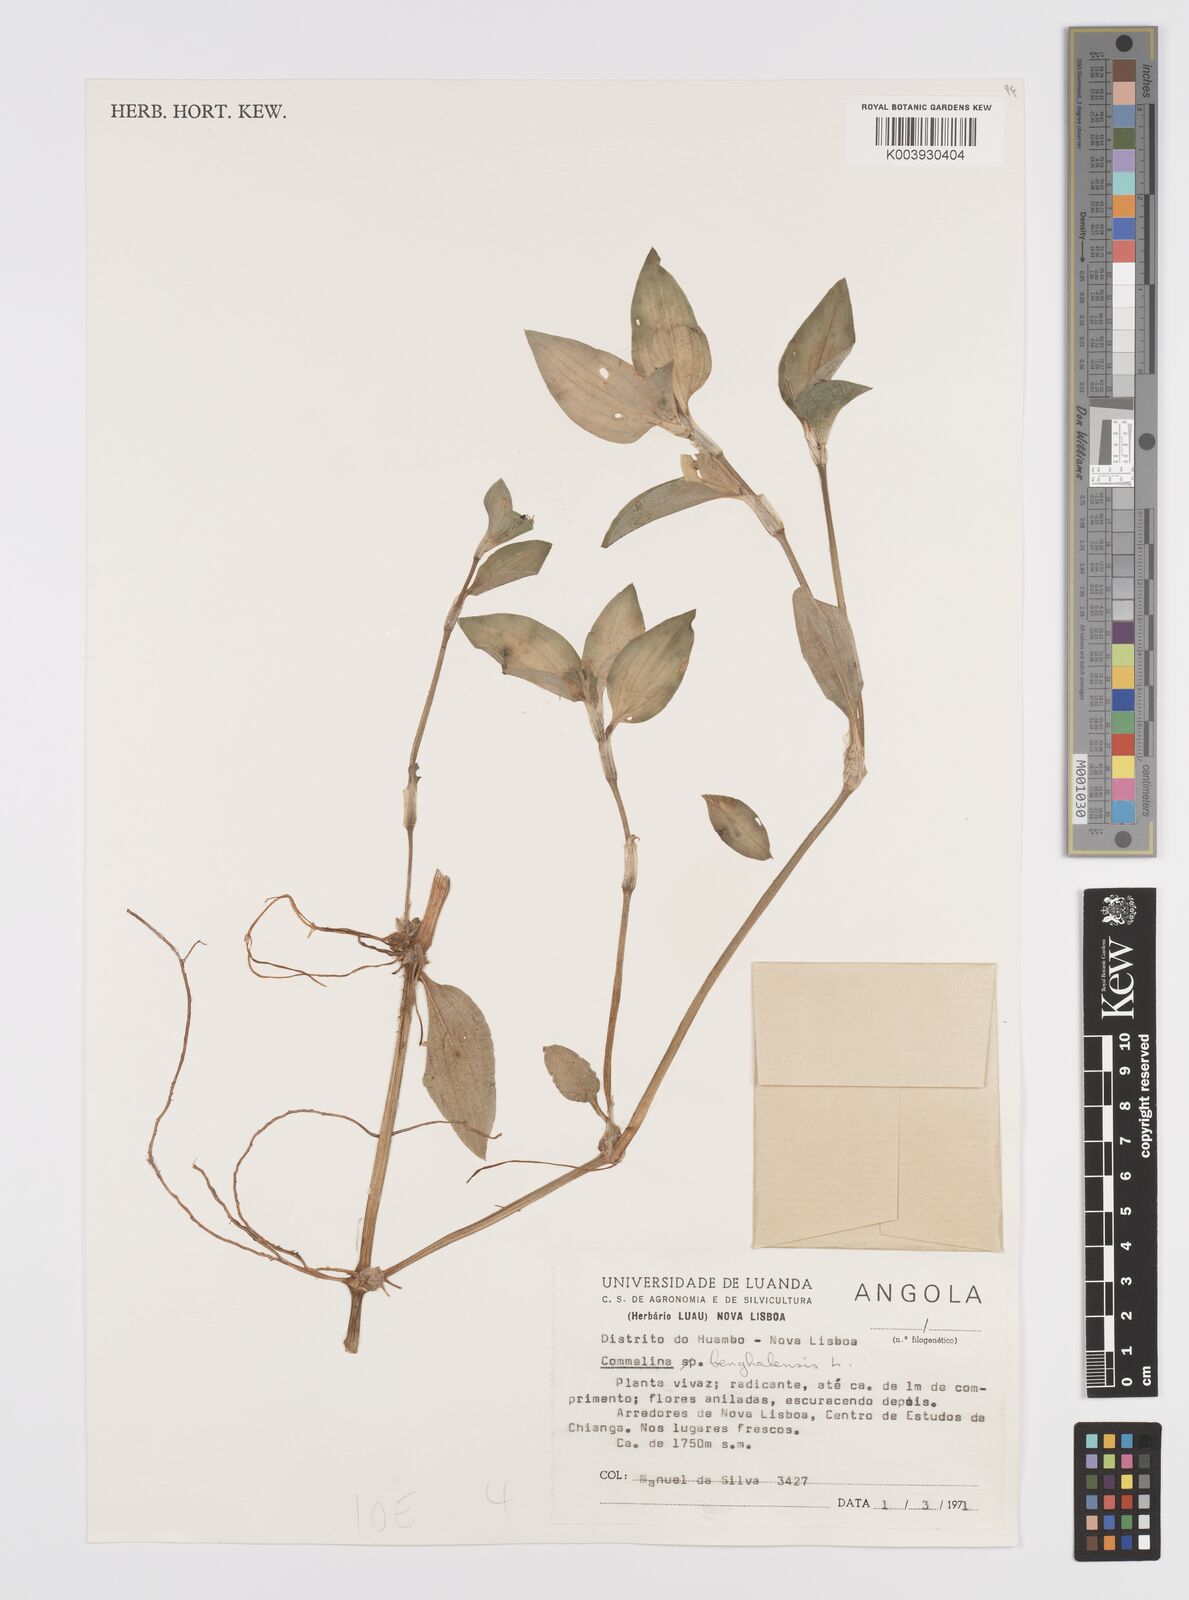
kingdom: Plantae
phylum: Tracheophyta
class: Liliopsida
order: Commelinales
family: Commelinaceae
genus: Commelina
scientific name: Commelina benghalensis
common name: Jio
